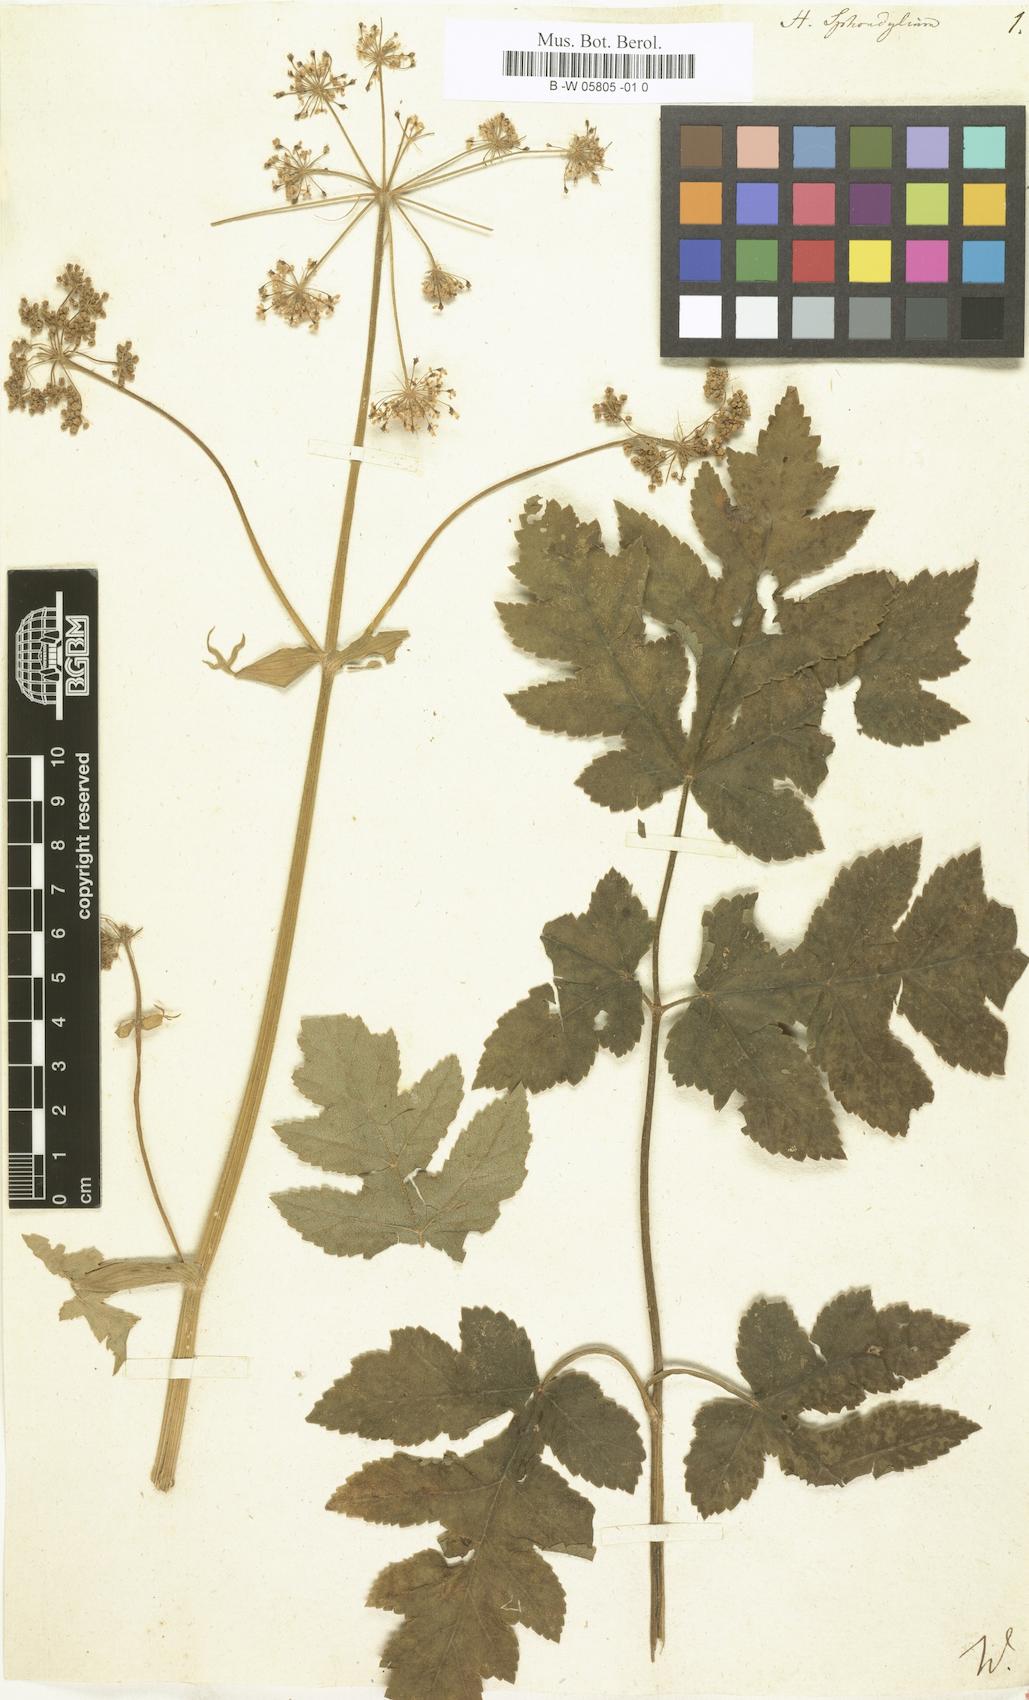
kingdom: Plantae
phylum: Tracheophyta
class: Magnoliopsida
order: Apiales
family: Apiaceae
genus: Heracleum
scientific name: Heracleum sphondylium
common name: Hogweed
